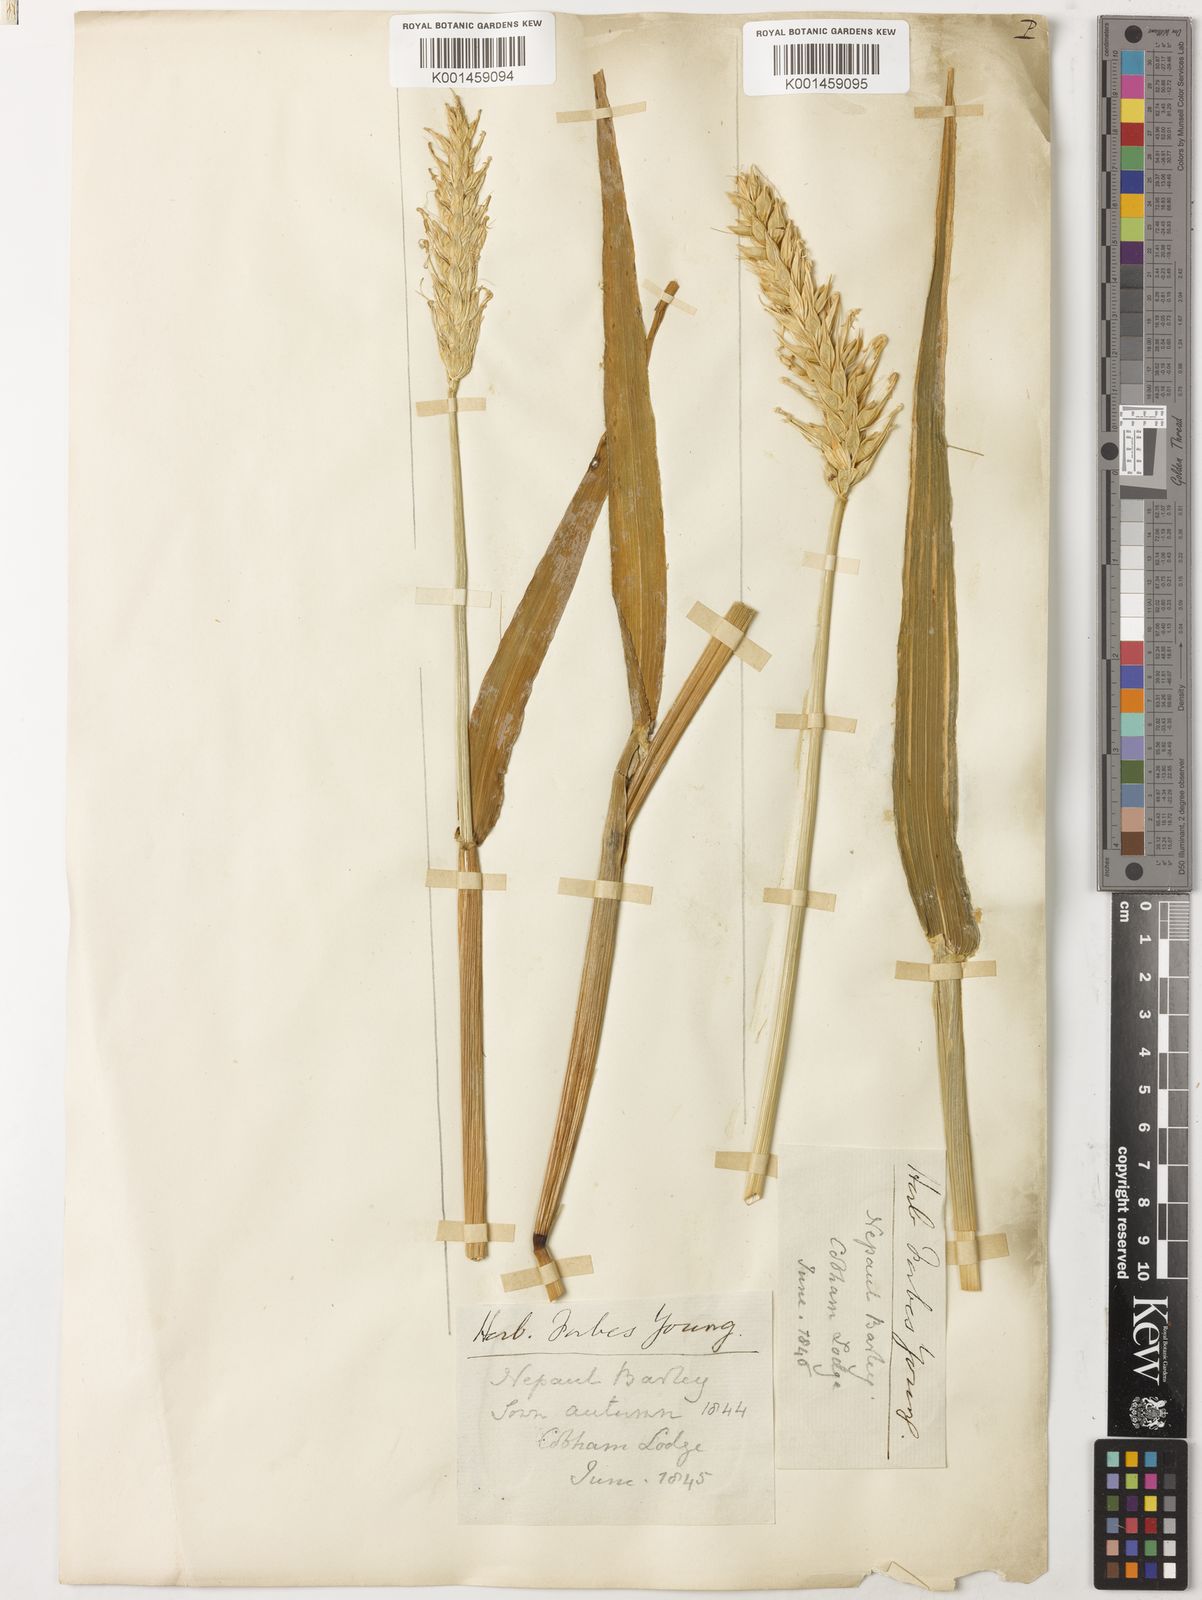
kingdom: Plantae
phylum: Tracheophyta
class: Liliopsida
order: Poales
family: Poaceae
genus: Hordeum
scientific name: Hordeum vulgare
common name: Common barley
